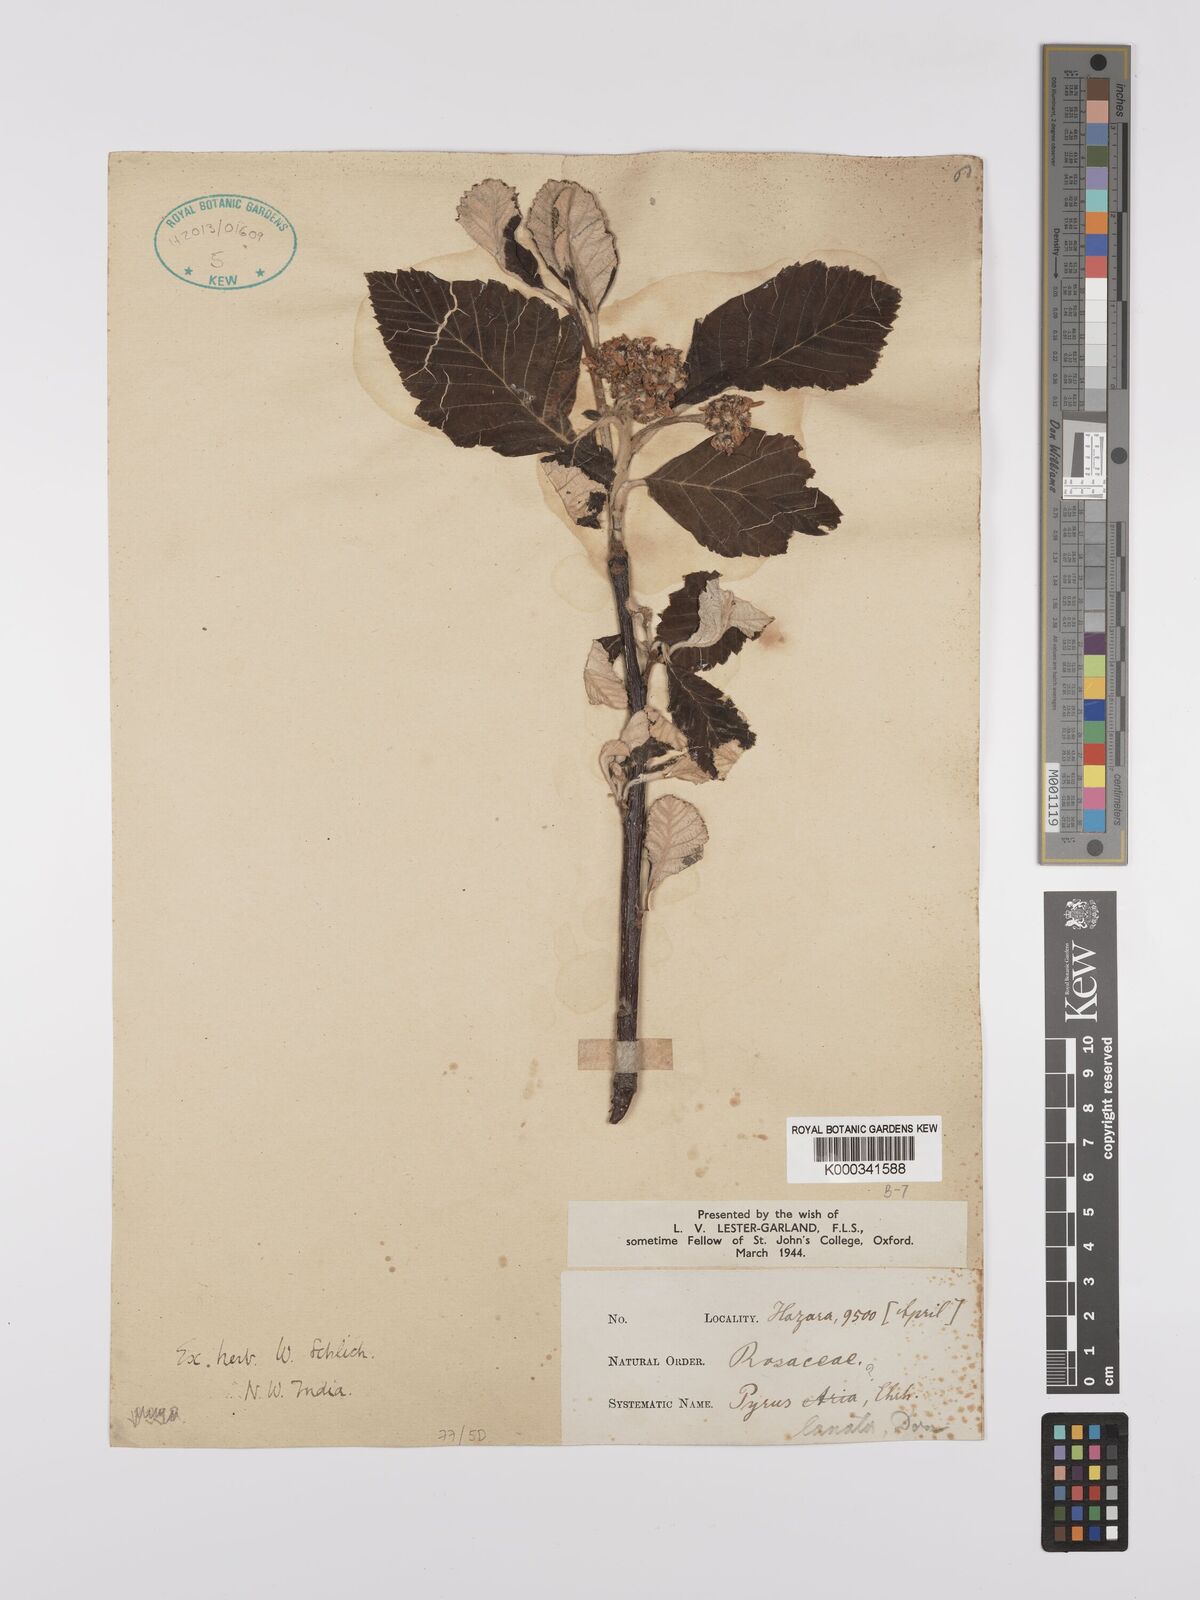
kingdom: Plantae
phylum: Tracheophyta
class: Magnoliopsida
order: Rosales
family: Rosaceae
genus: Sorbus
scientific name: Sorbus lanata
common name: Hairy rowan
